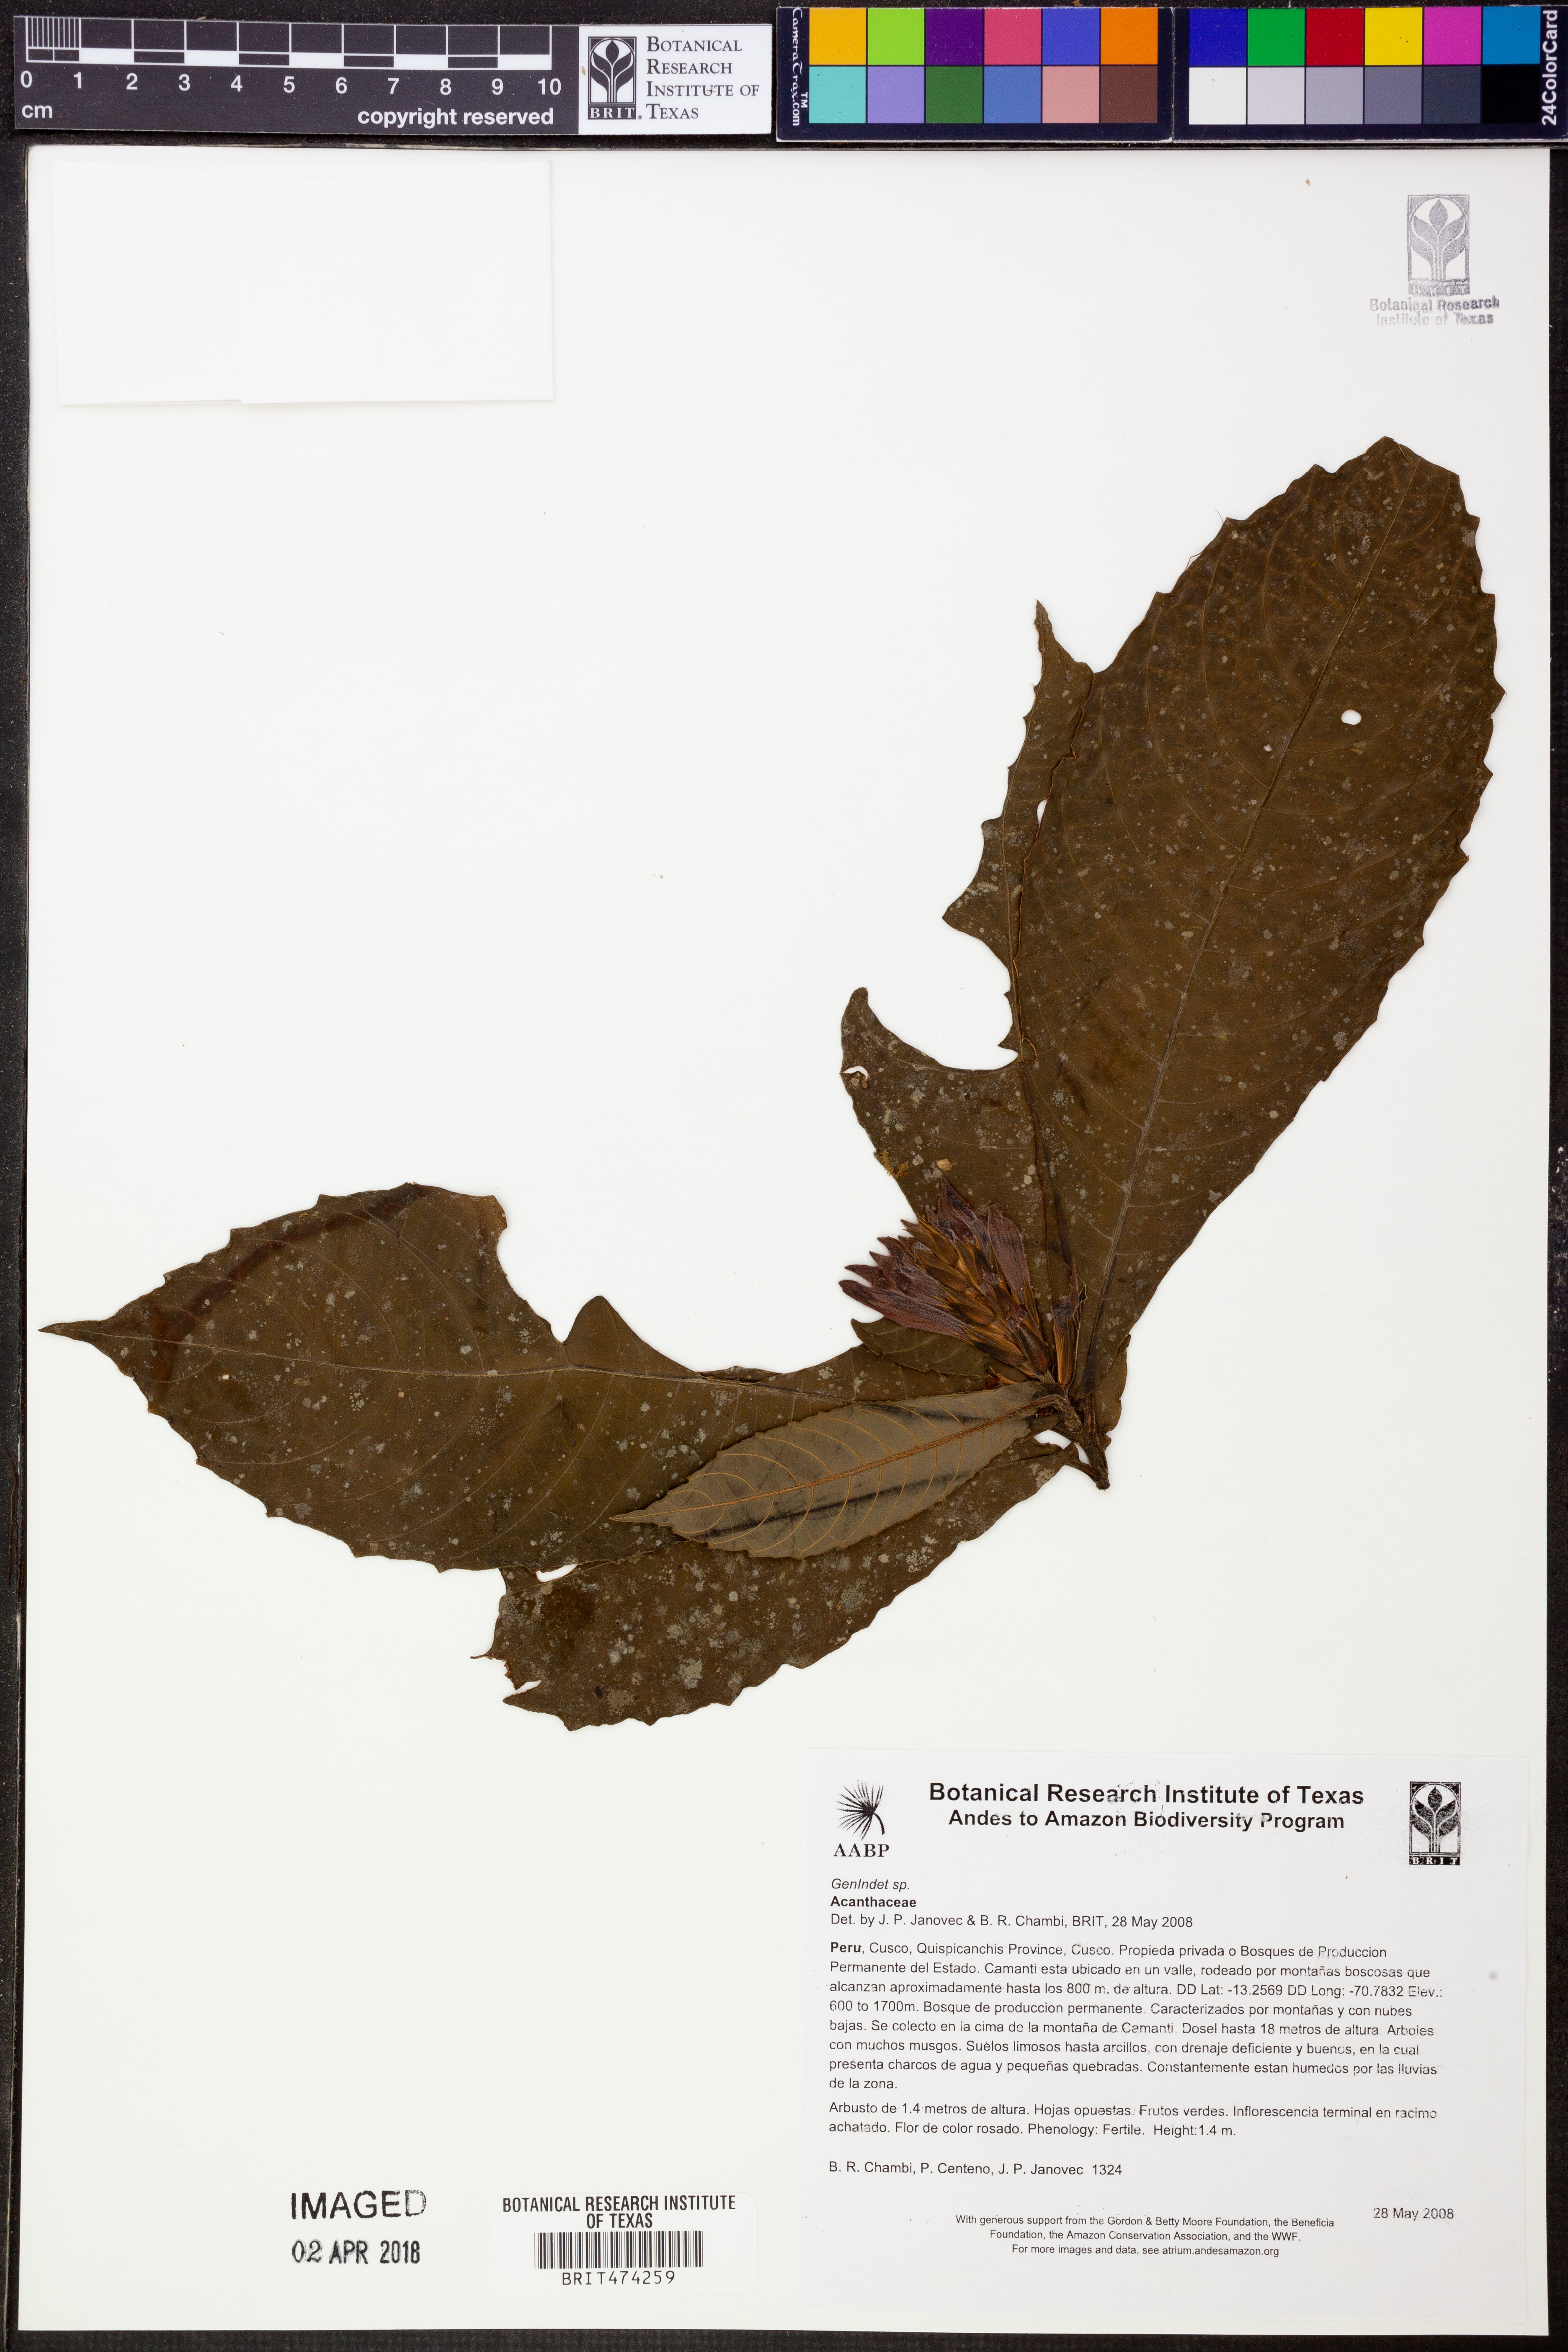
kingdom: Plantae
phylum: Tracheophyta
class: Magnoliopsida
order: Lamiales
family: Acanthaceae
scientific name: Acanthaceae
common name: Acanthaceae
